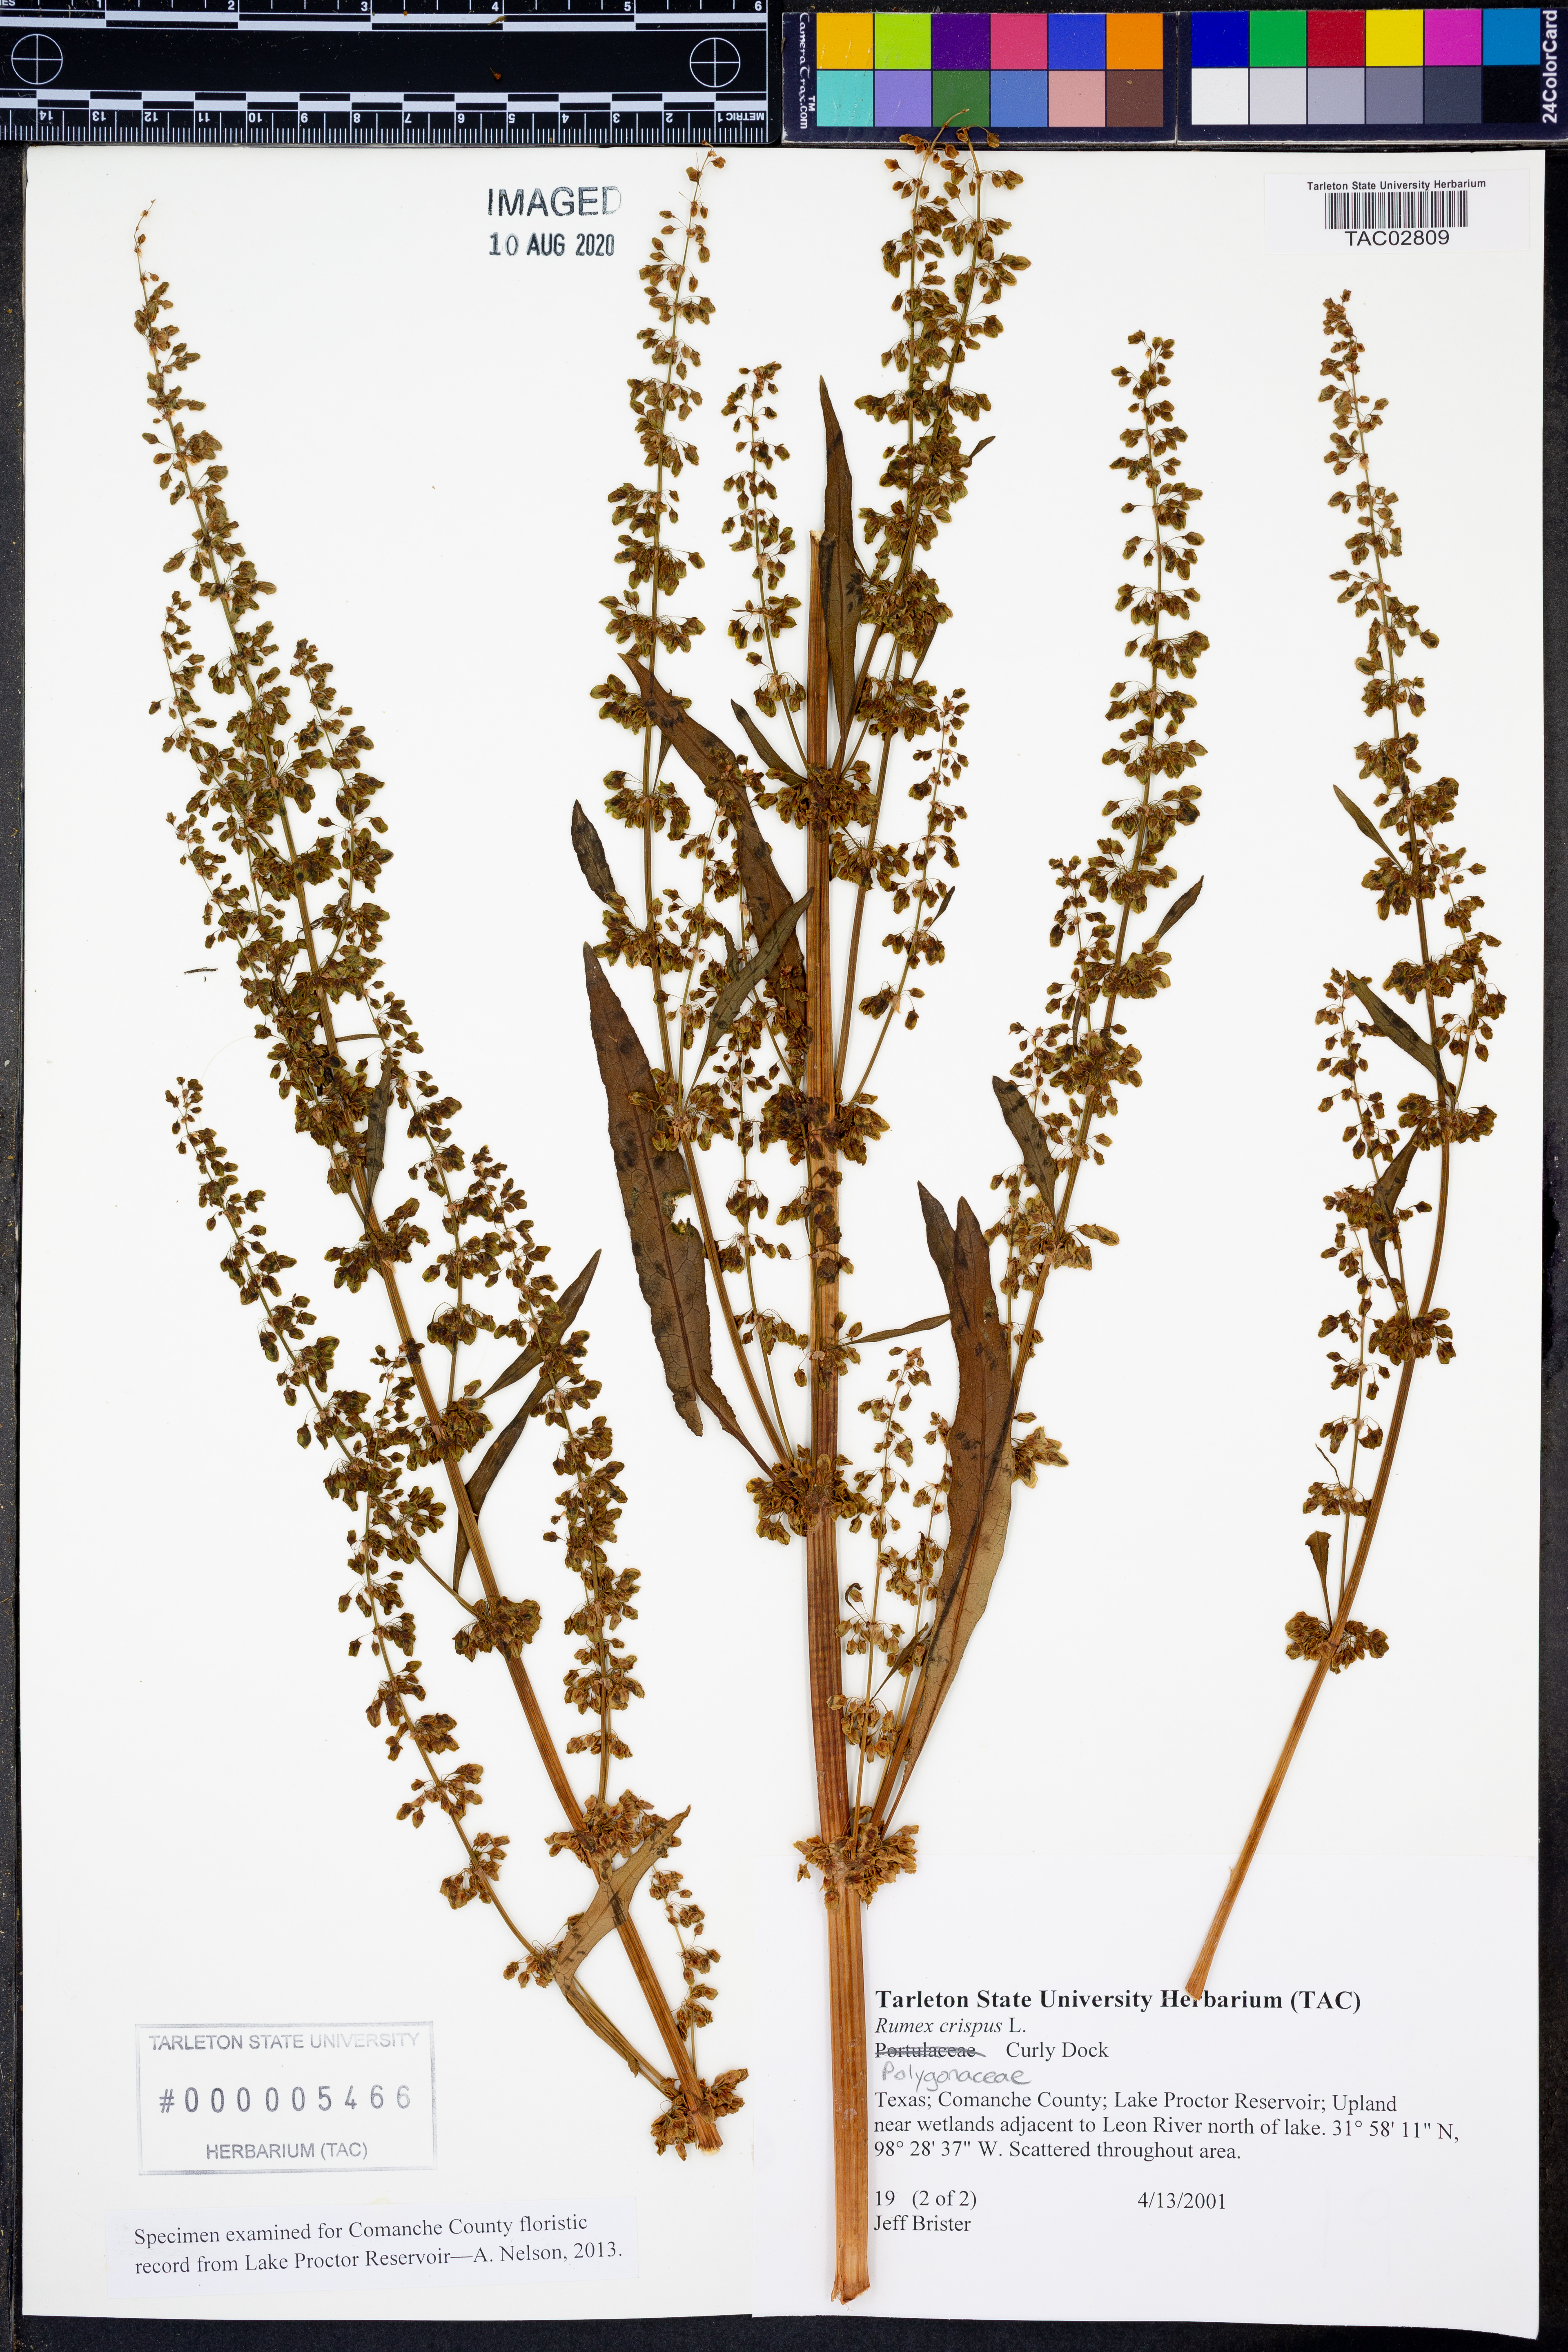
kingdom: Plantae
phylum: Tracheophyta
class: Magnoliopsida
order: Caryophyllales
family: Polygonaceae
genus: Rumex
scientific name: Rumex crispus
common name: Curled dock
